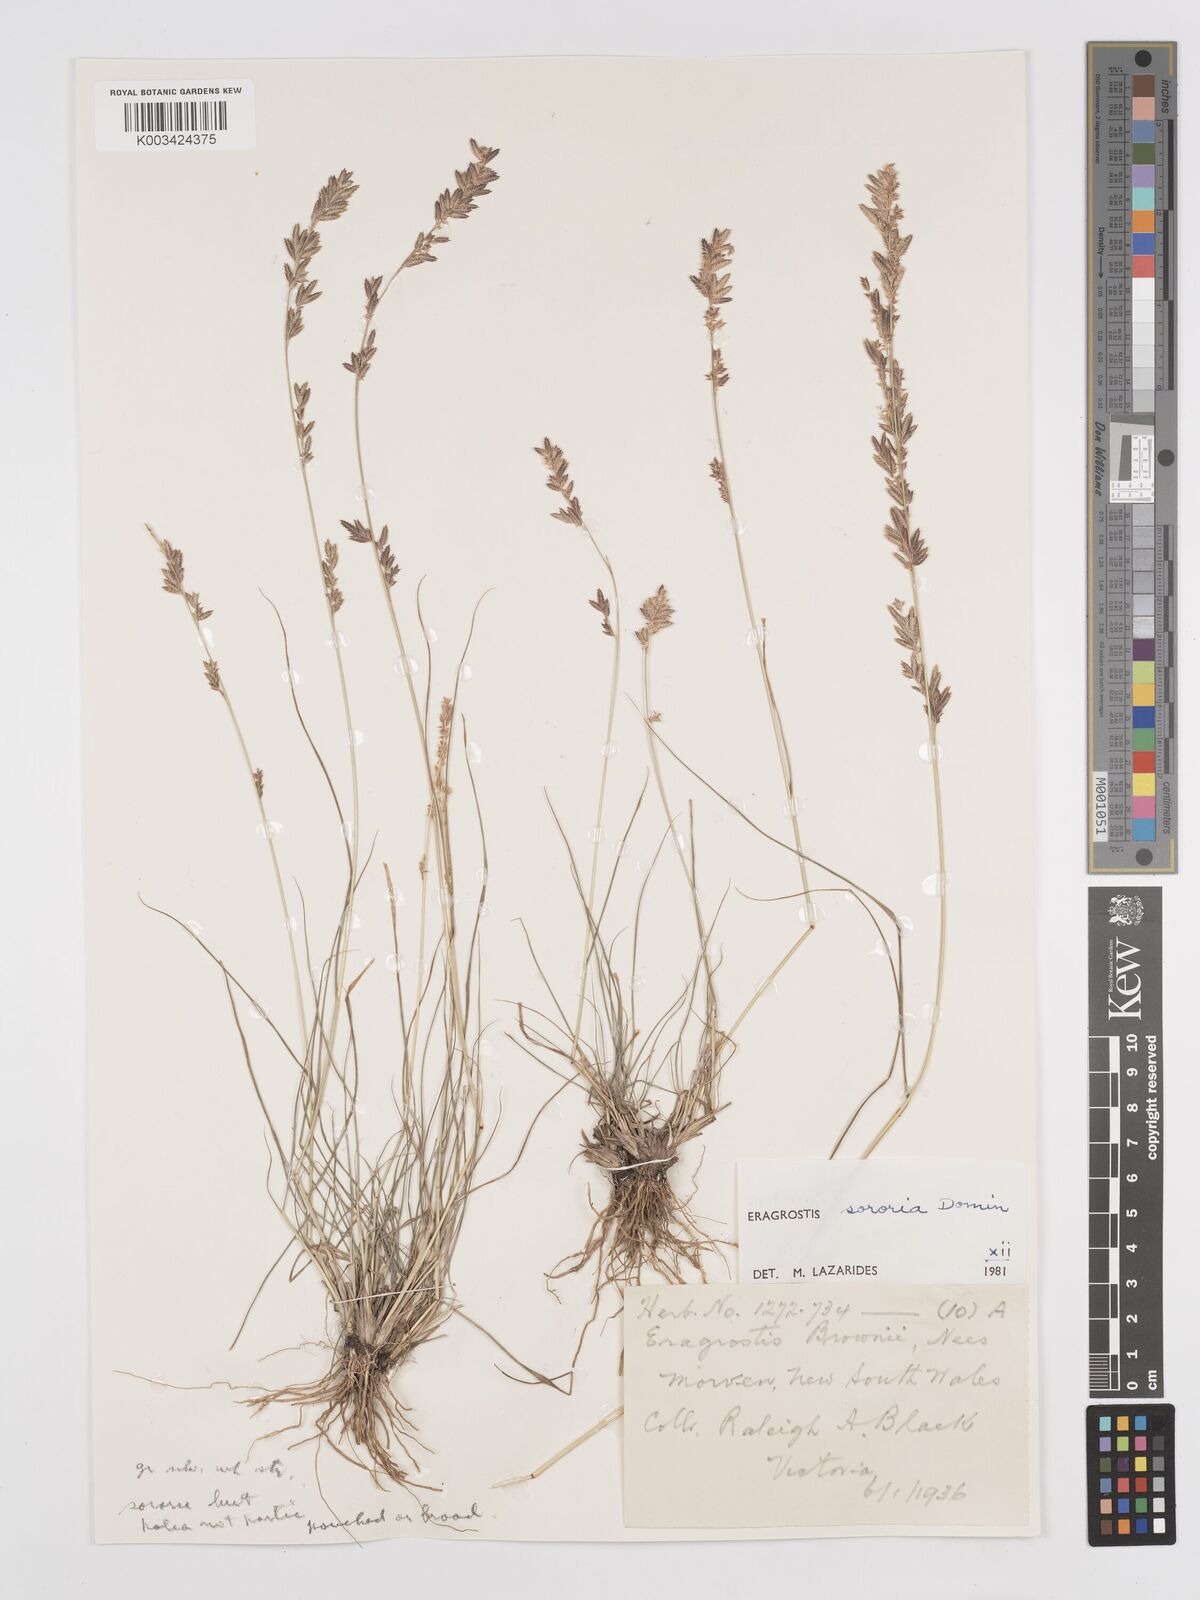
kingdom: Plantae
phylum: Tracheophyta
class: Liliopsida
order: Poales
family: Poaceae
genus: Eragrostis
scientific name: Eragrostis sororia
